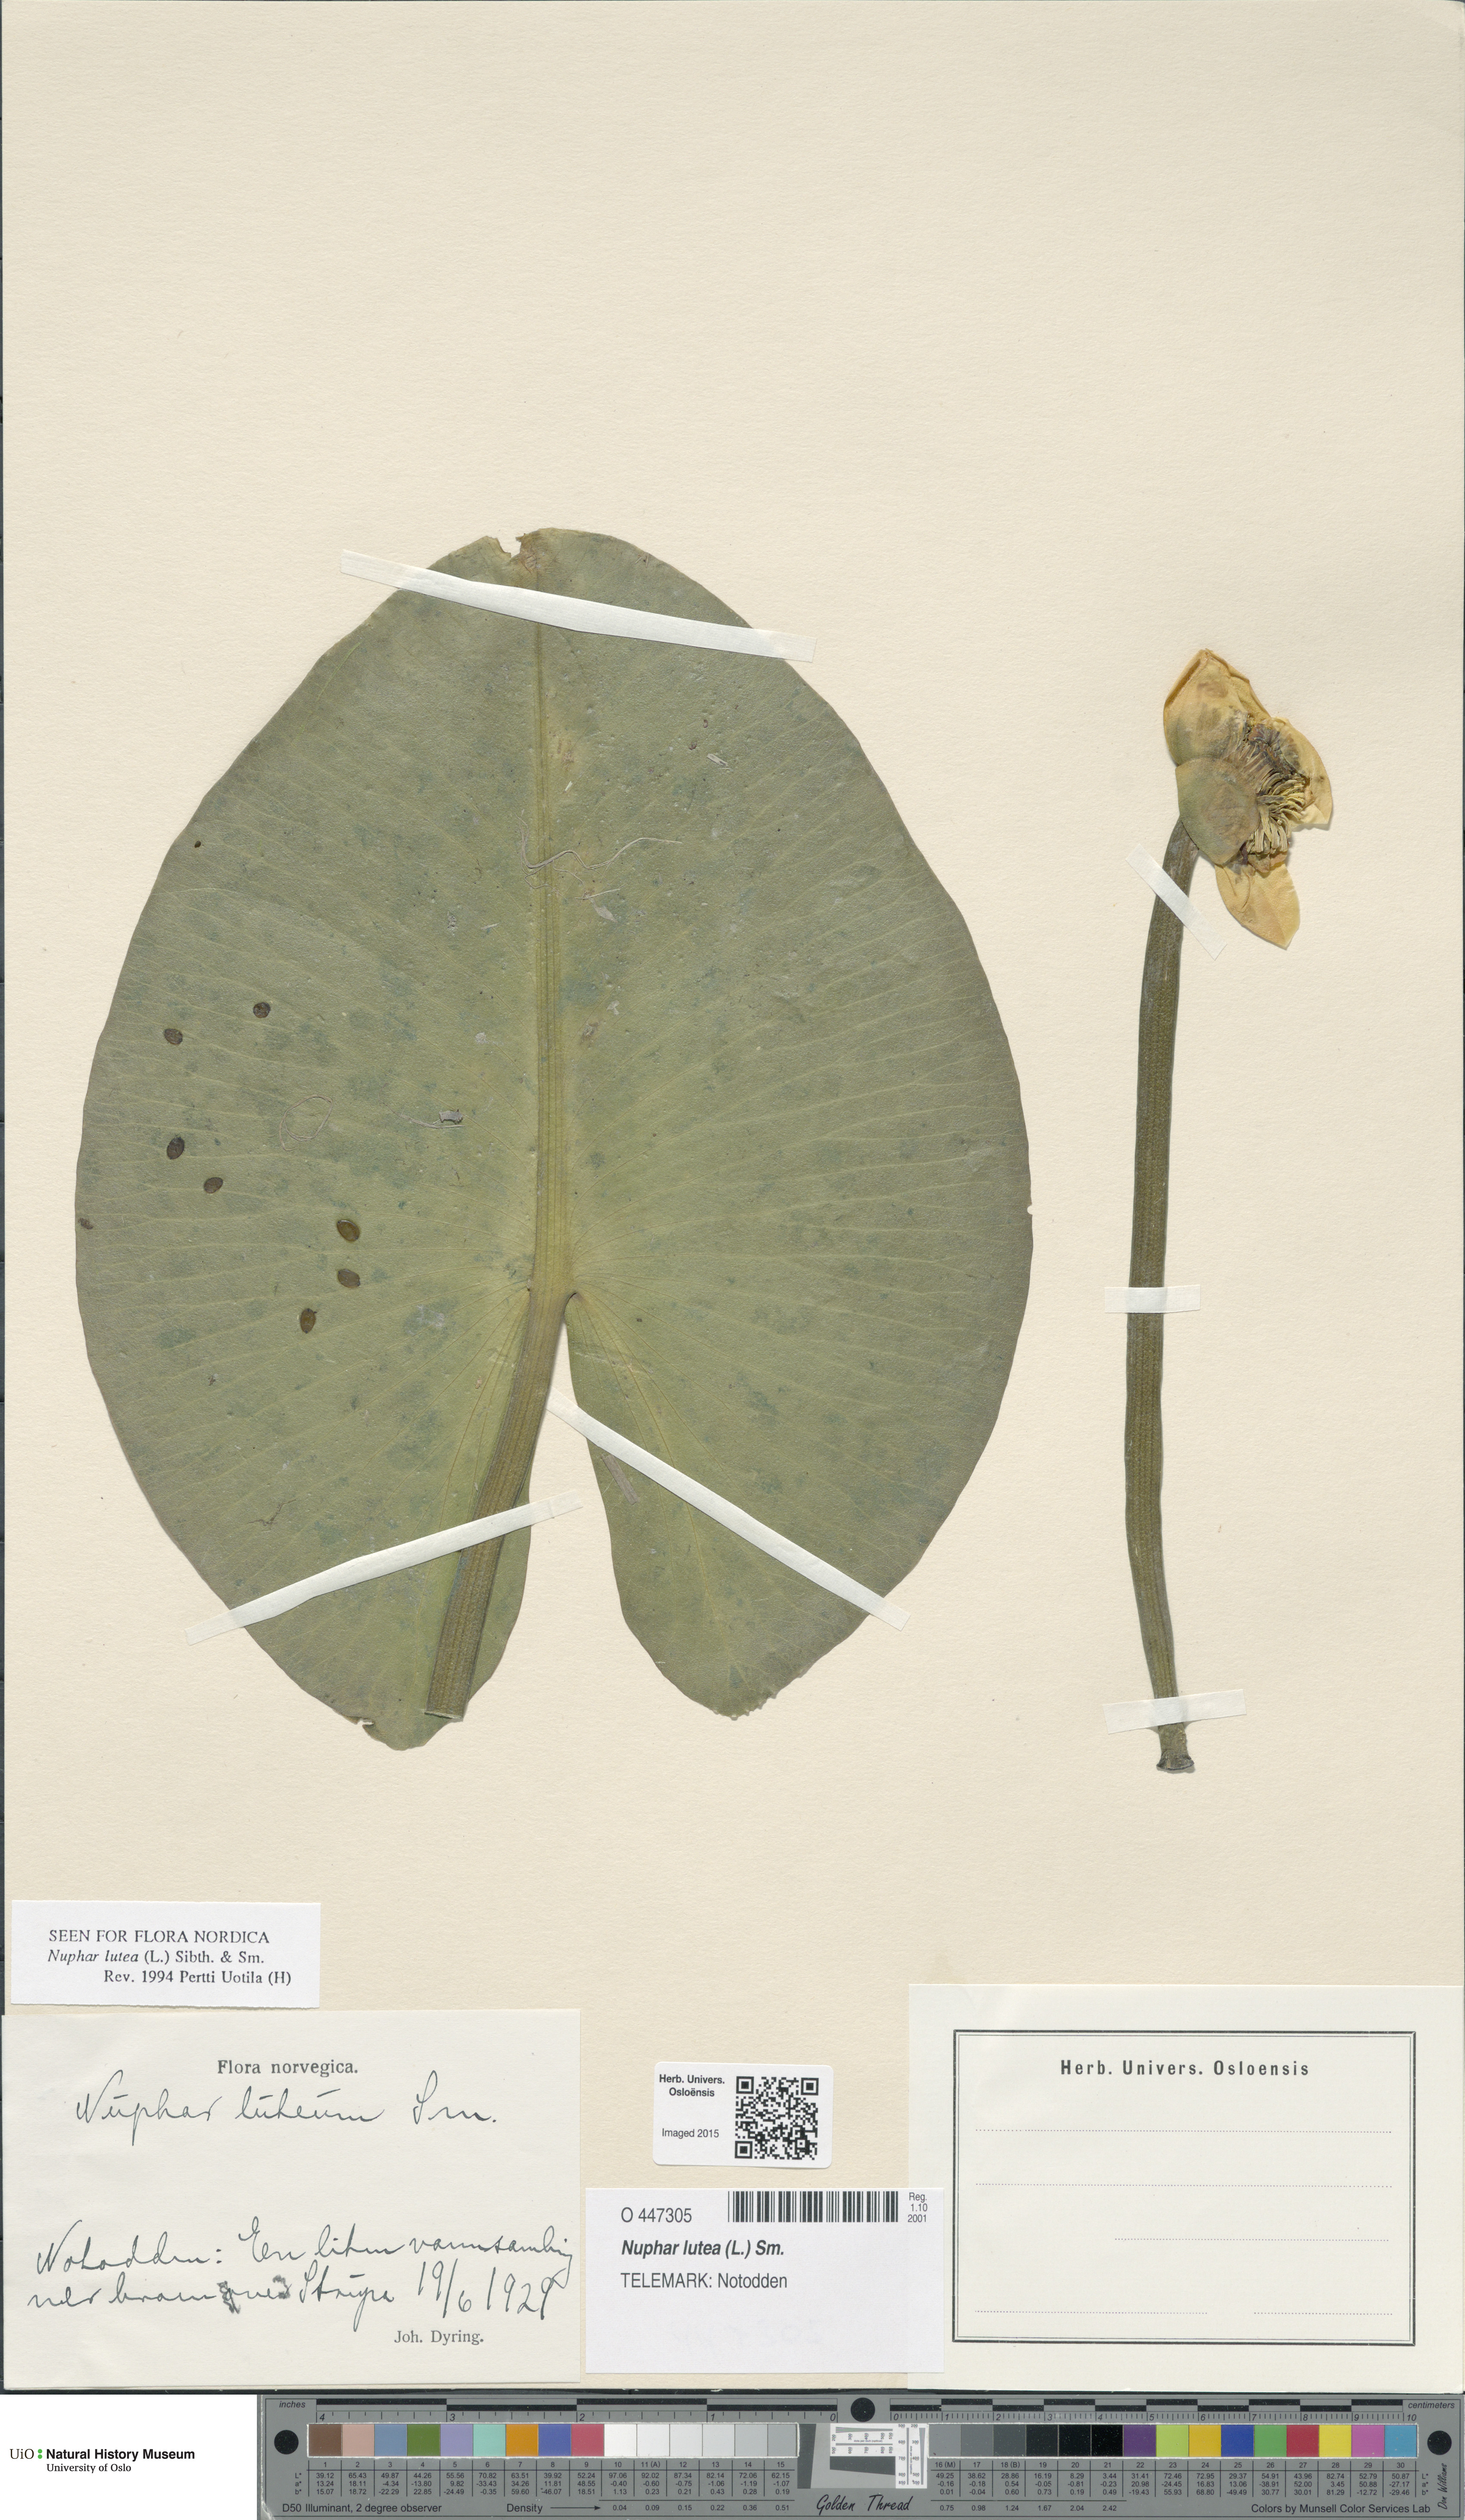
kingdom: Plantae
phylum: Tracheophyta
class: Magnoliopsida
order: Nymphaeales
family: Nymphaeaceae
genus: Nuphar
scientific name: Nuphar lutea
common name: Yellow water-lily
